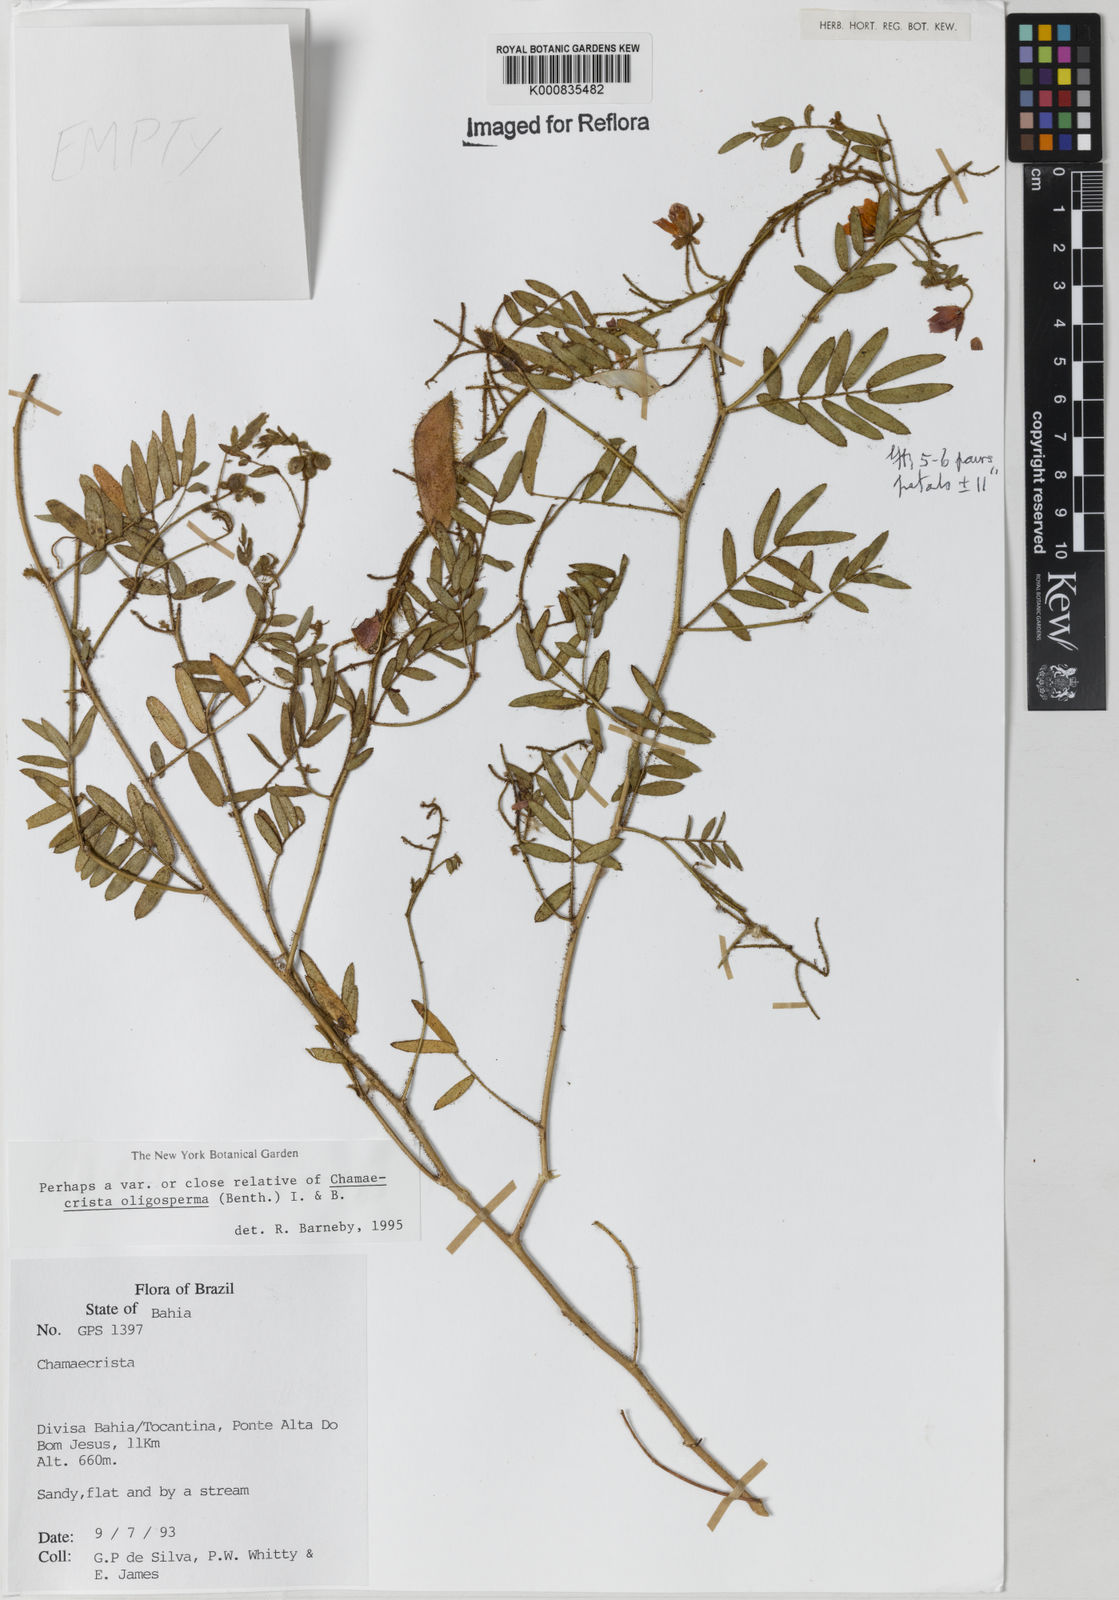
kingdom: Plantae
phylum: Tracheophyta
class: Magnoliopsida
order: Fabales
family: Fabaceae
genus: Chamaecrista
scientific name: Chamaecrista oligosperma
